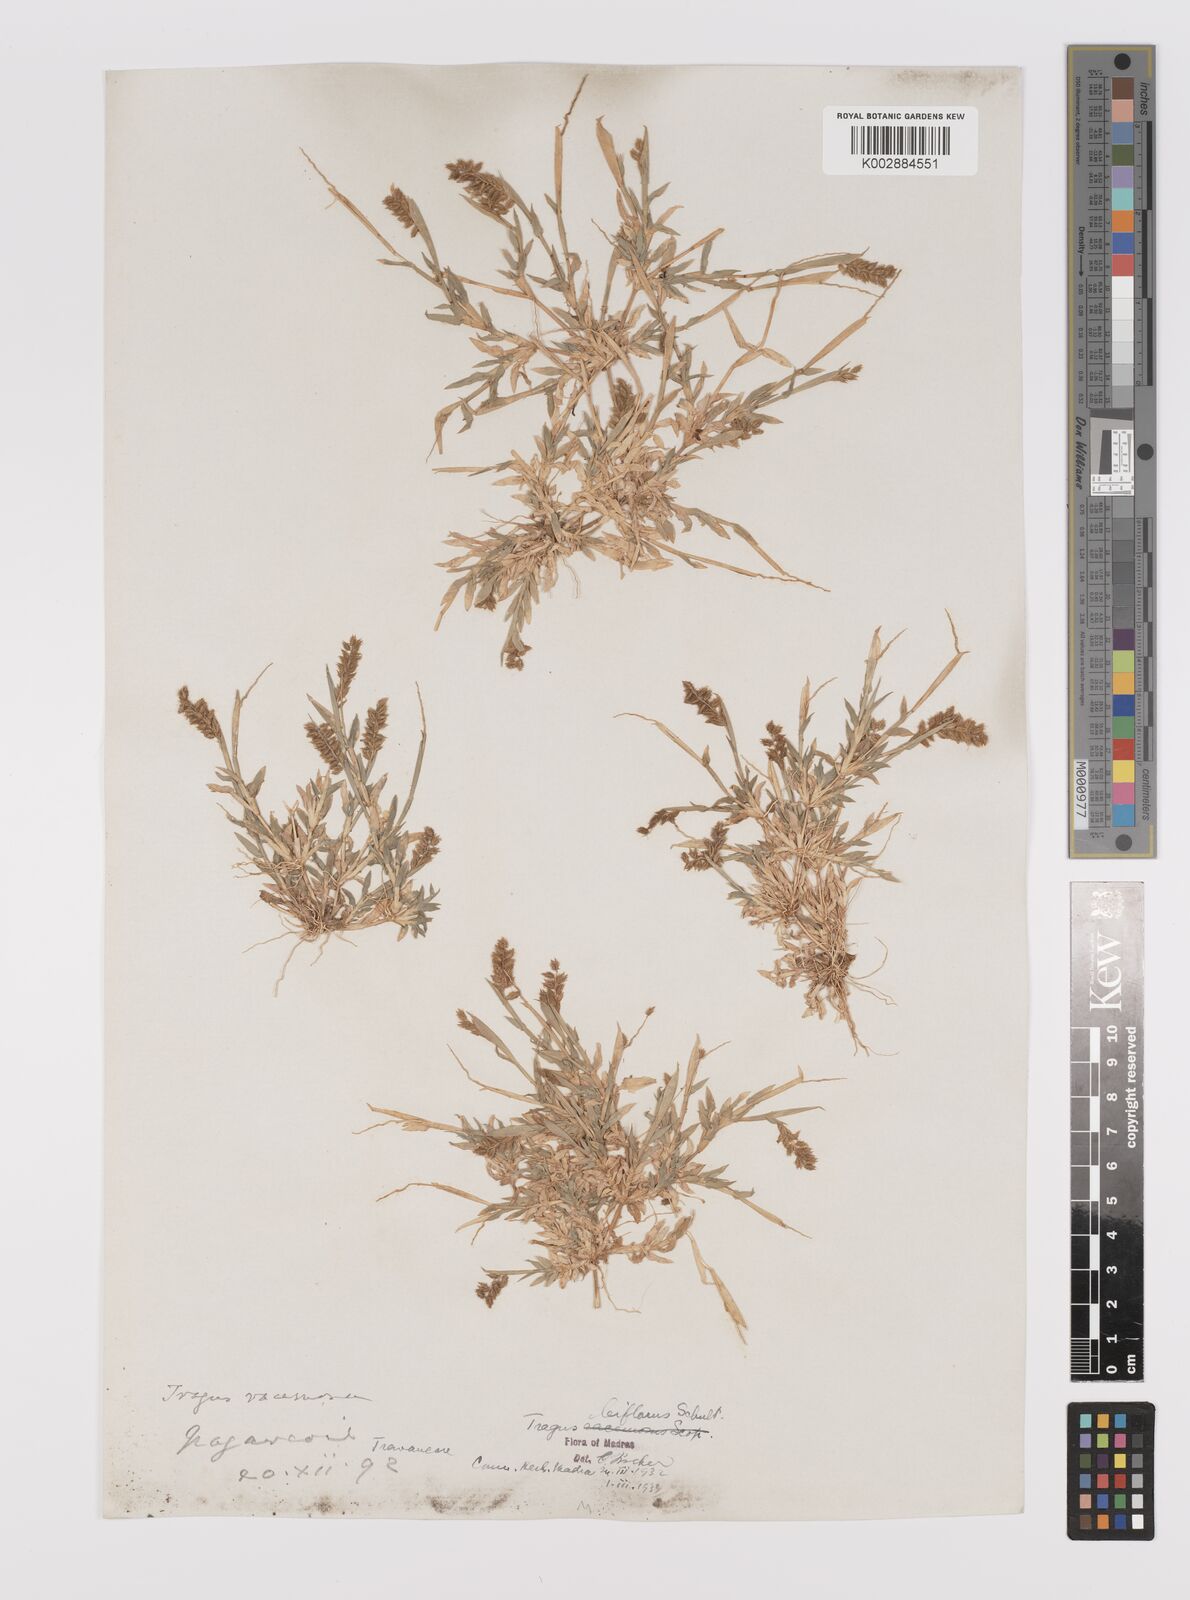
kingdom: Plantae
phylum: Tracheophyta
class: Liliopsida
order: Poales
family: Poaceae
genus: Tragus
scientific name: Tragus mongolorum
